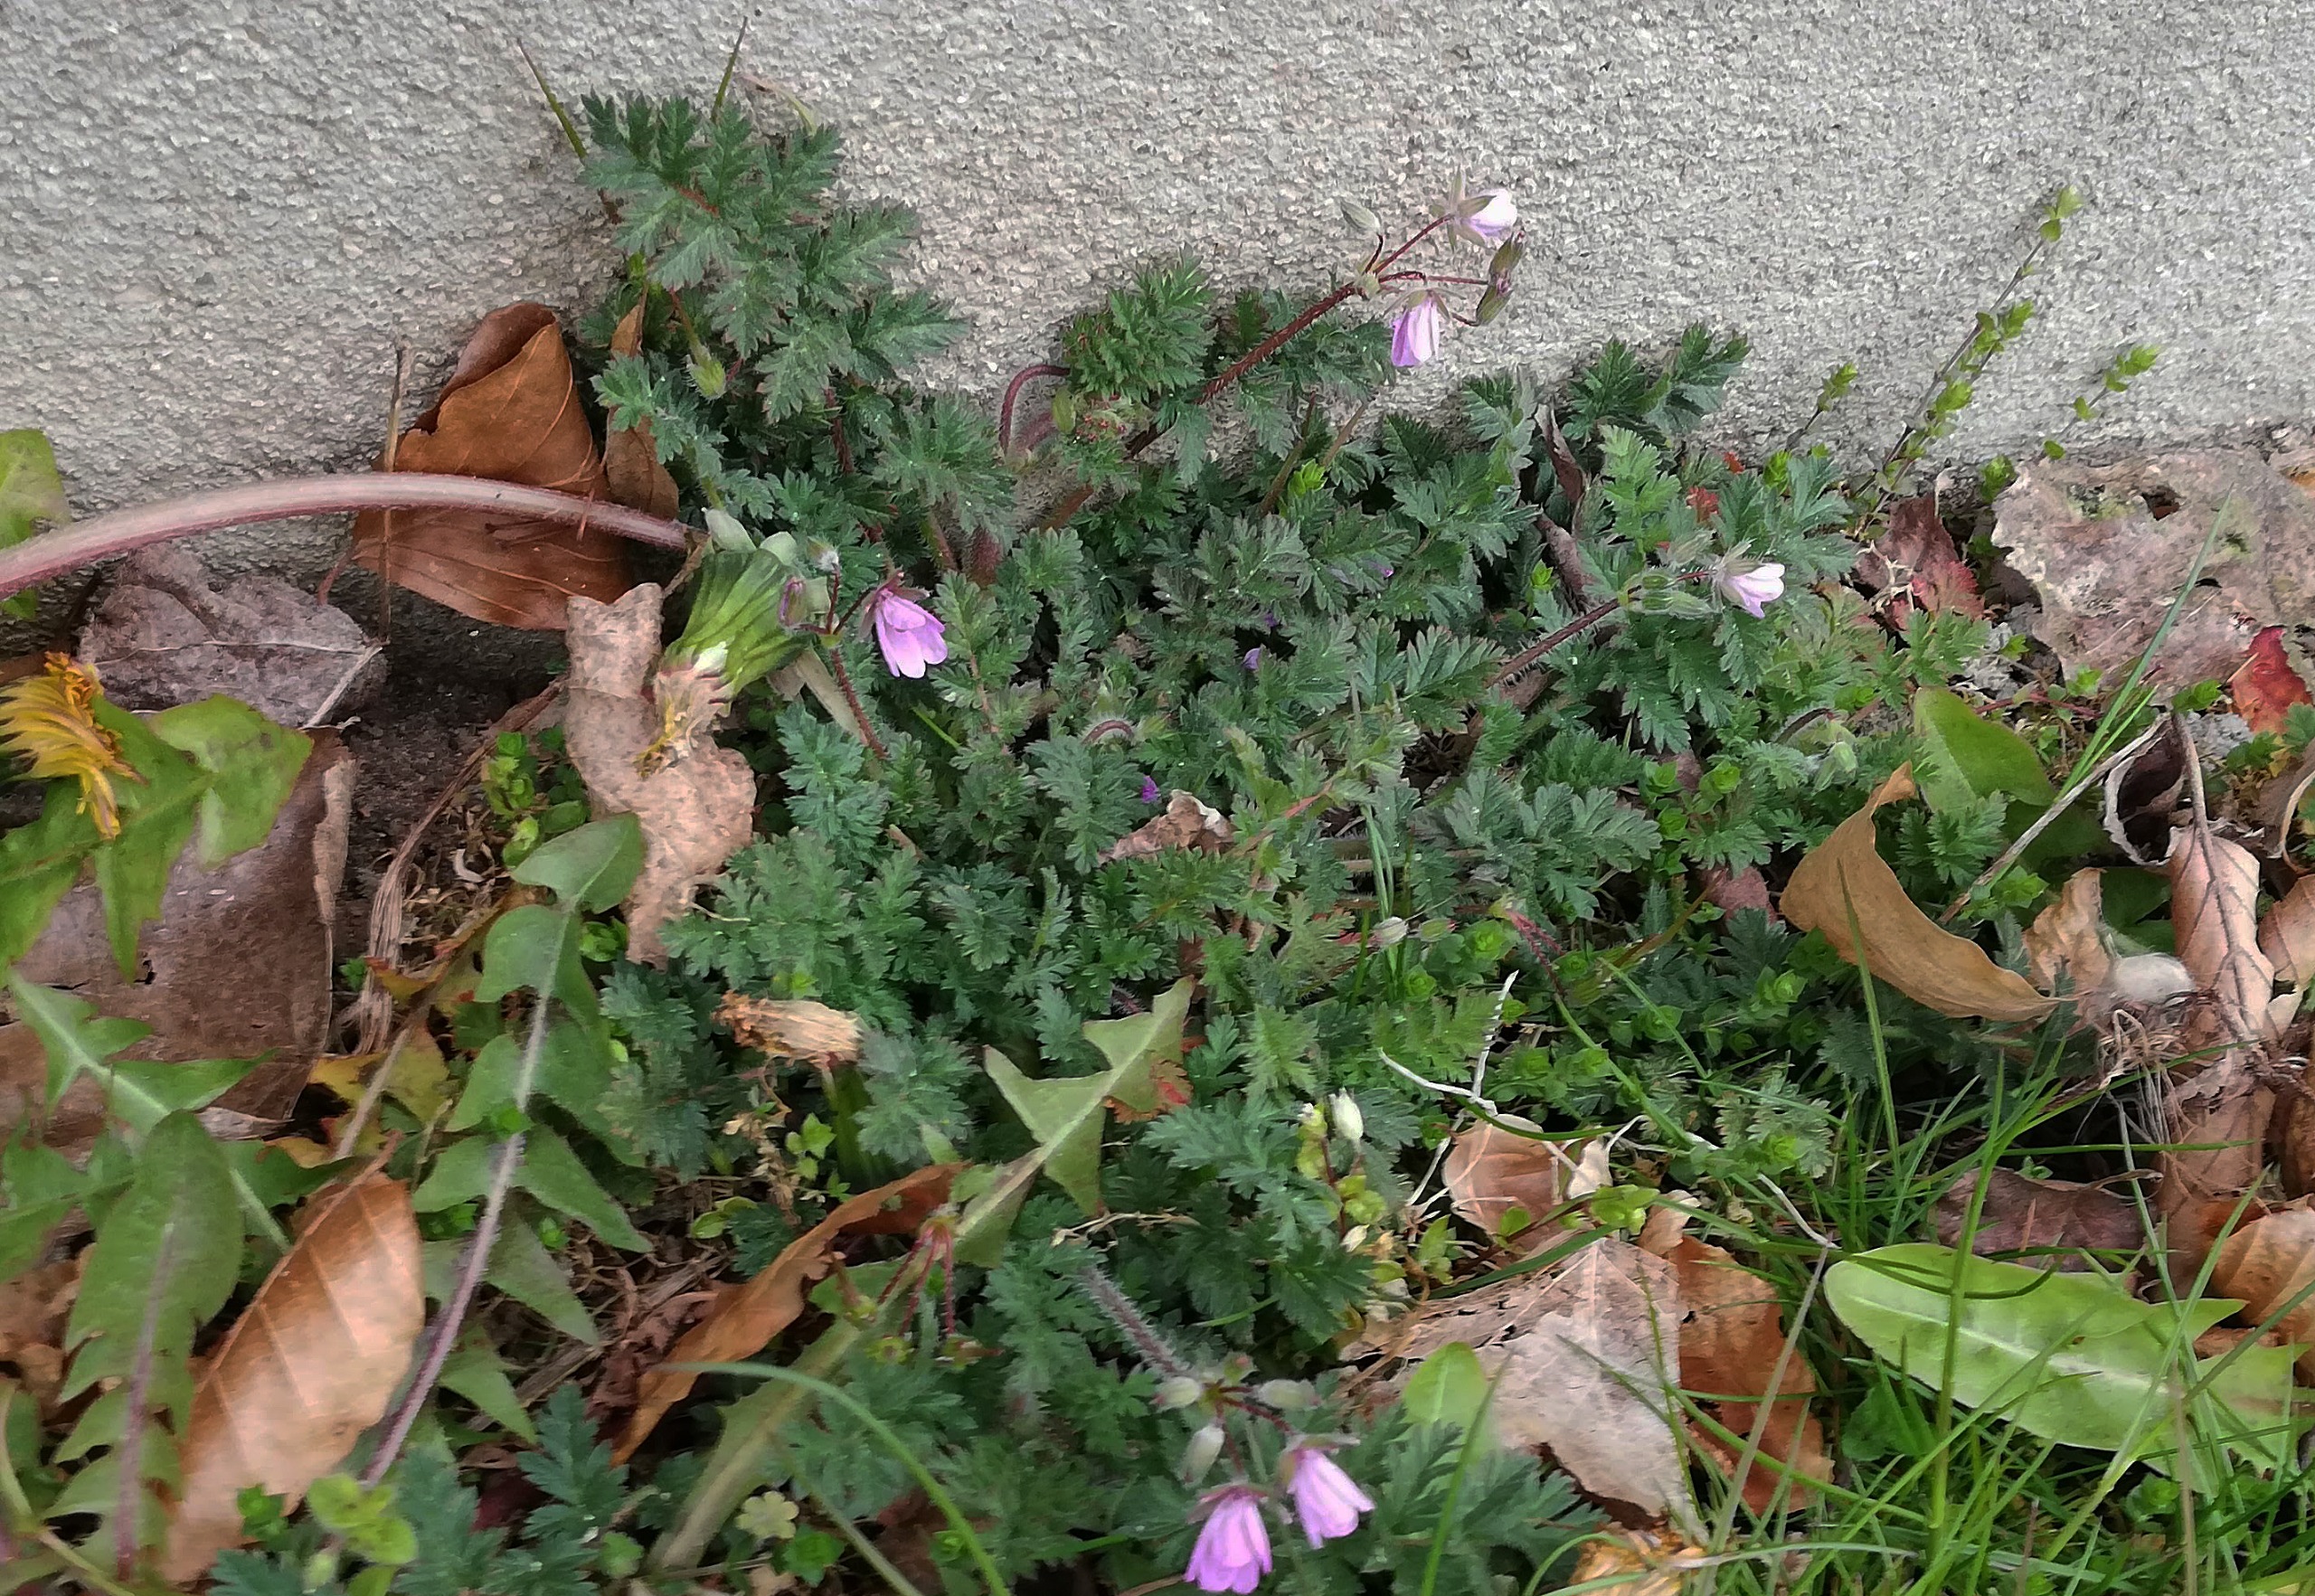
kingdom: Plantae
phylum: Tracheophyta
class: Magnoliopsida
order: Geraniales
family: Geraniaceae
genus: Erodium
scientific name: Erodium cicutarium
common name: Hejrenæb
